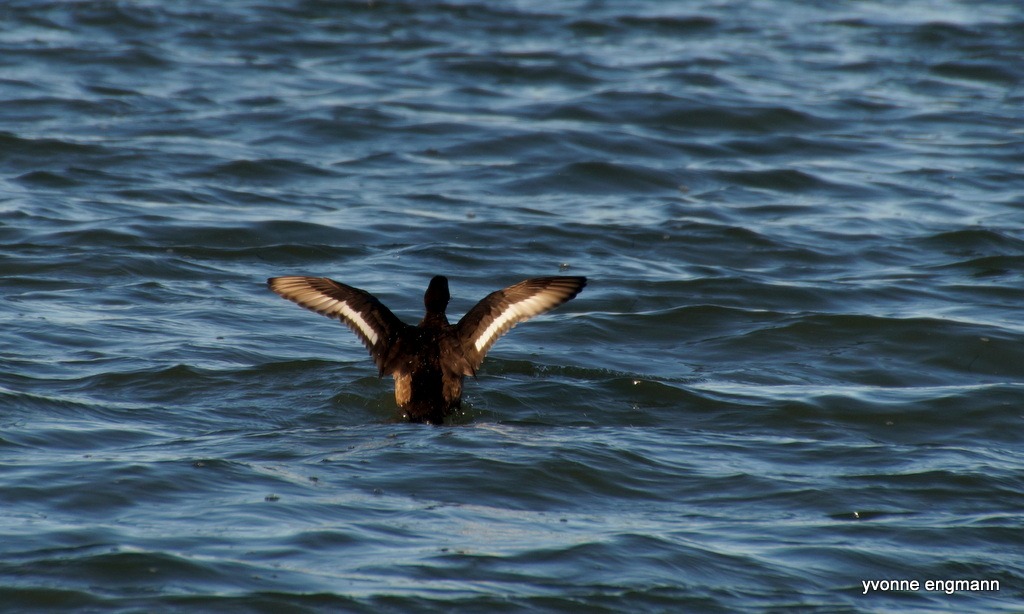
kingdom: Animalia
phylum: Chordata
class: Aves
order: Anseriformes
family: Anatidae
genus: Aythya
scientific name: Aythya marila
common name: Bjergand
